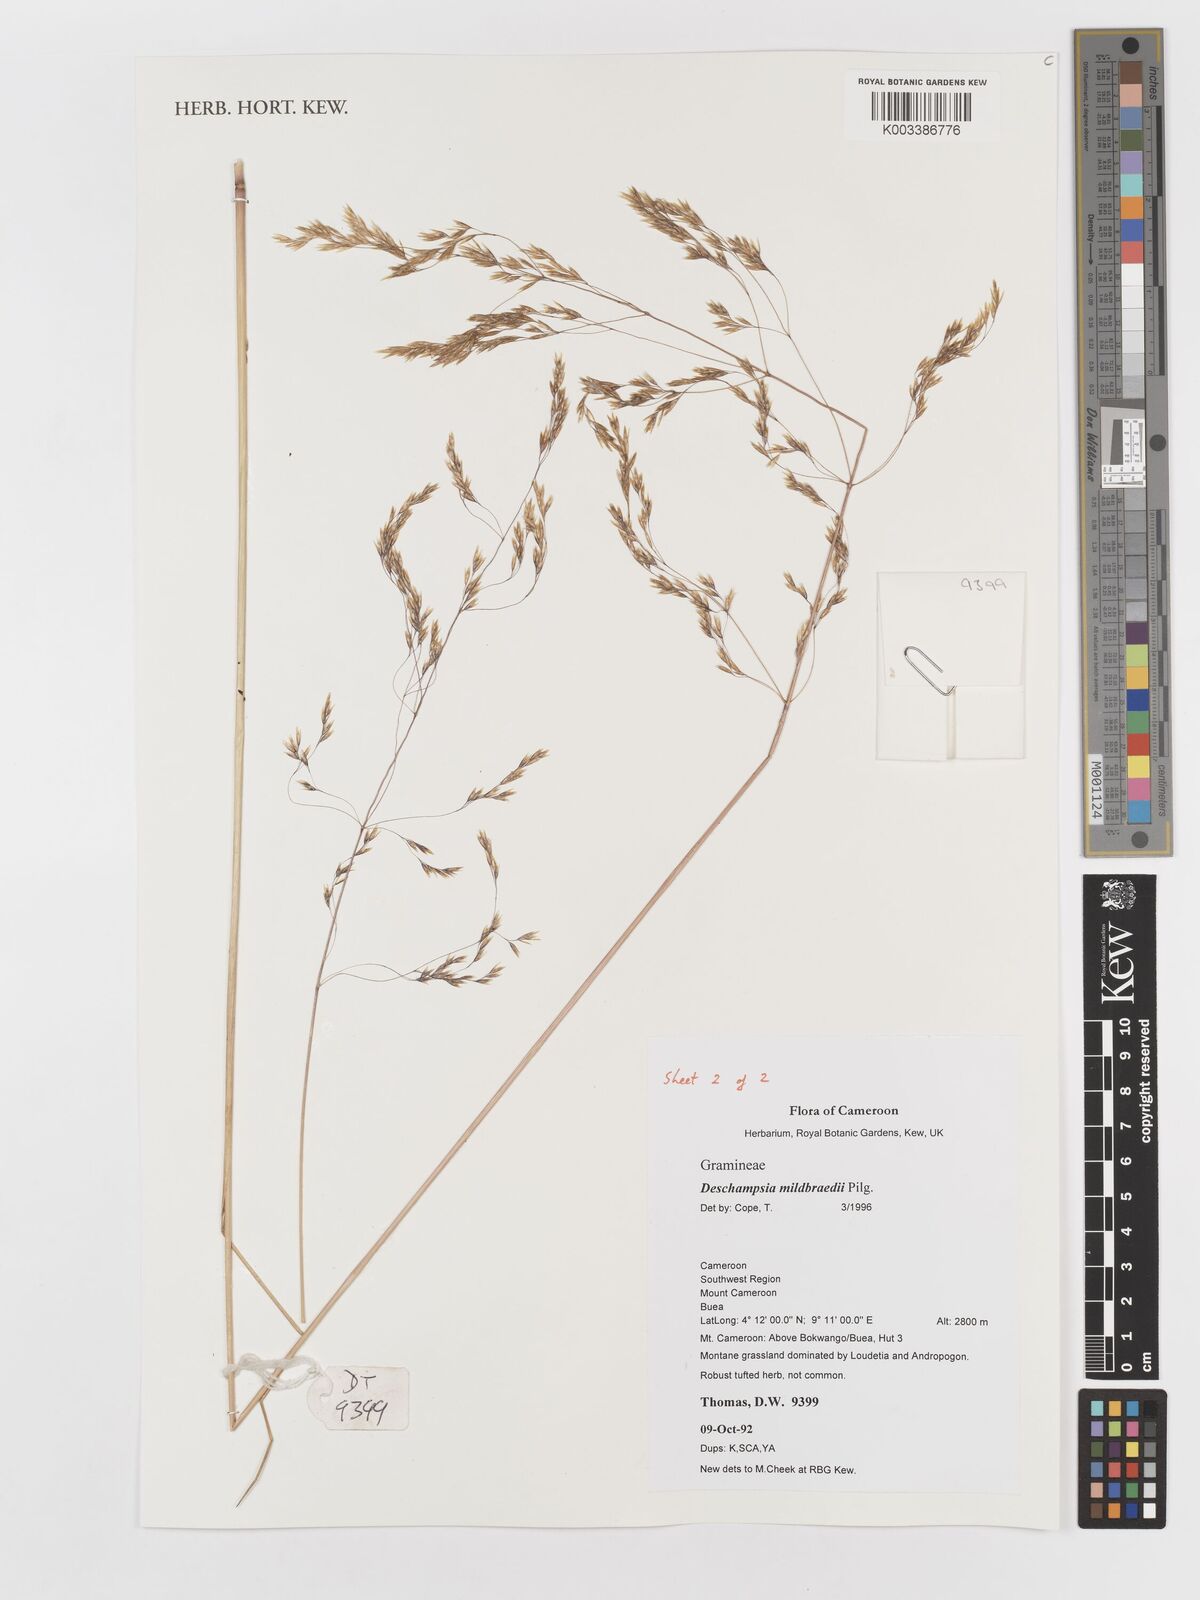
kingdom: Plantae
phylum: Tracheophyta
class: Liliopsida
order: Poales
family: Poaceae
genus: Deschampsia
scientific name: Deschampsia mildbraedii
